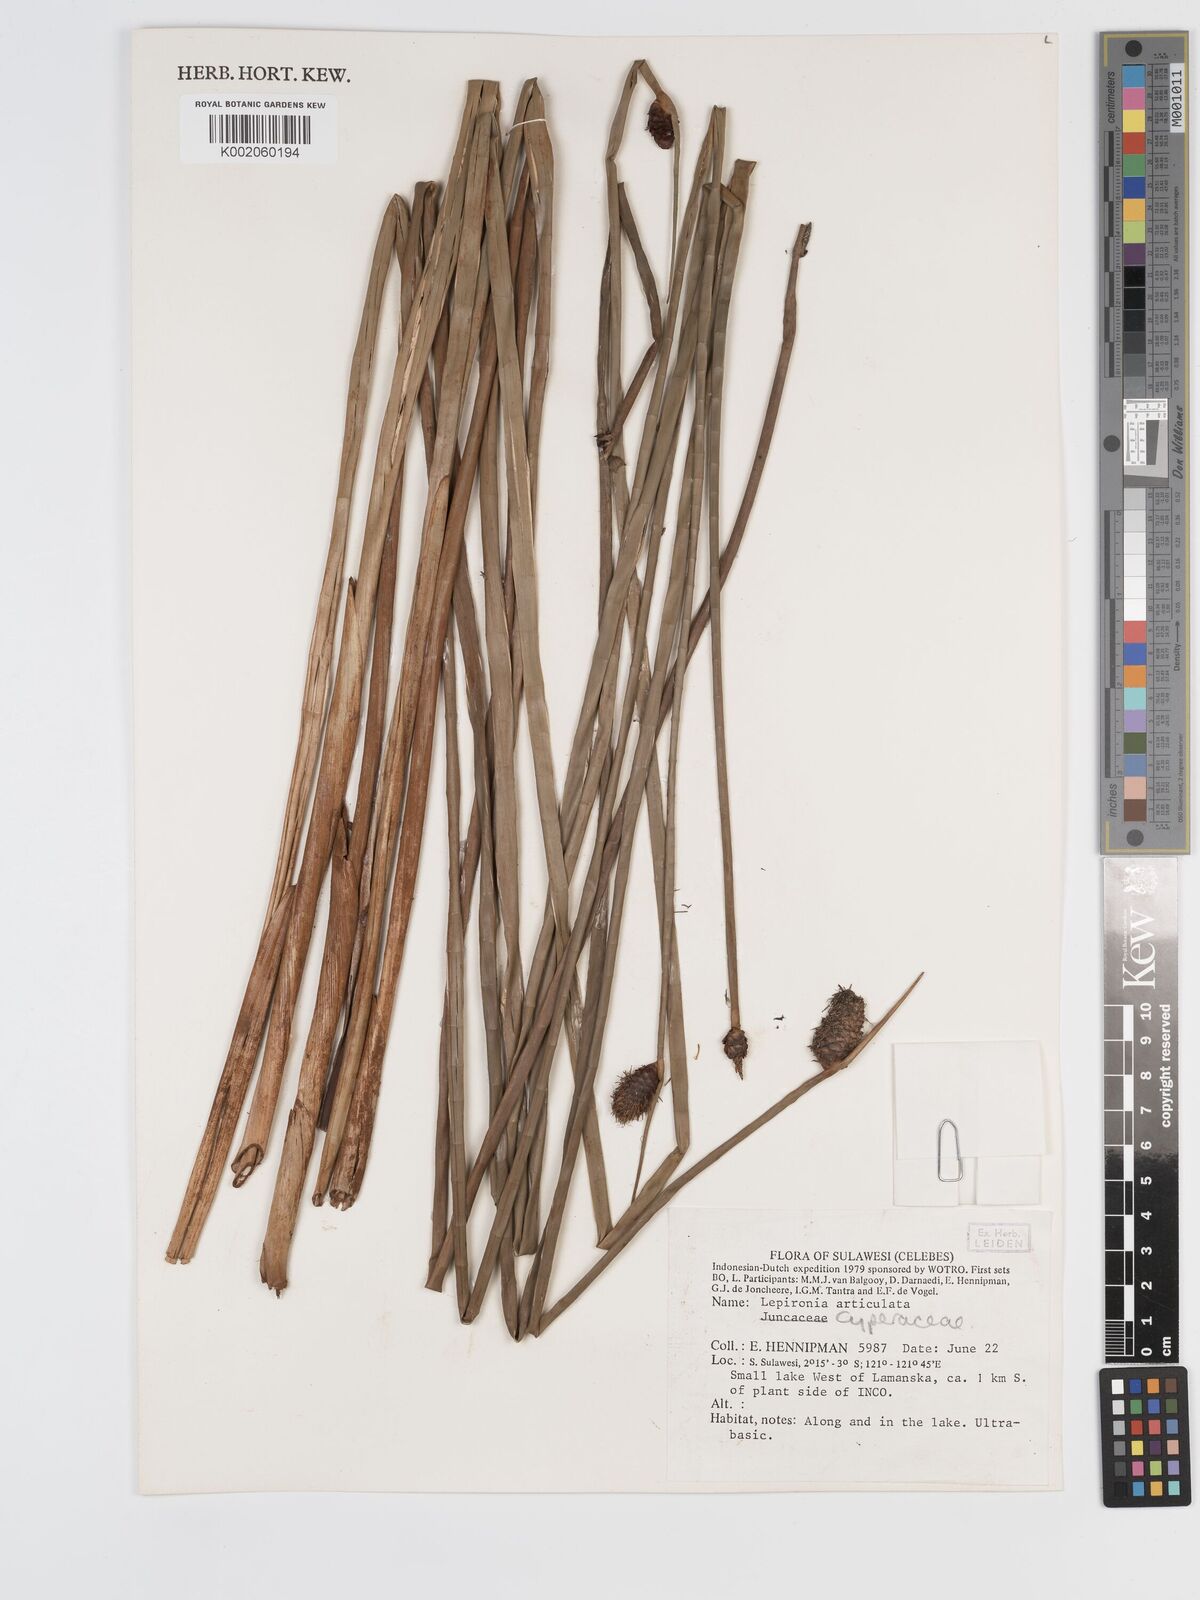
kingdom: Plantae
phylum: Tracheophyta
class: Liliopsida
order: Poales
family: Cyperaceae
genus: Lepironia
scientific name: Lepironia articulata
